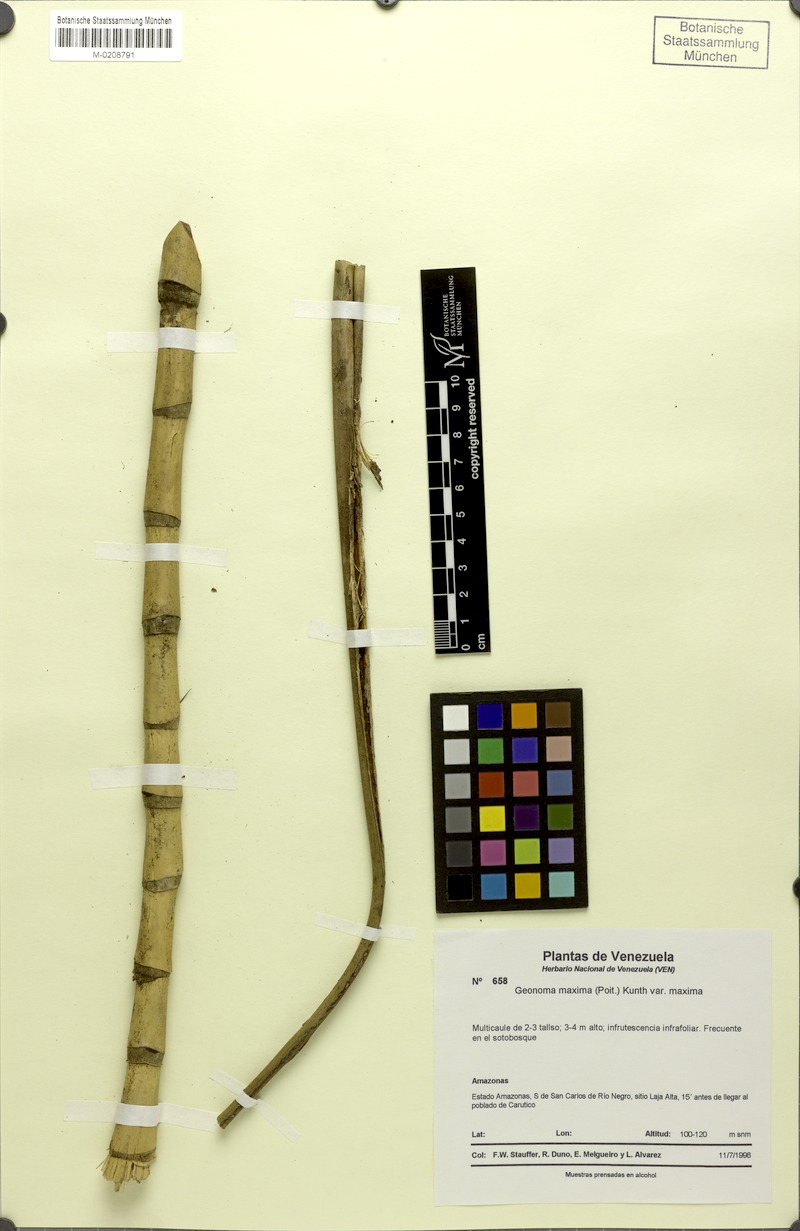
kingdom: Plantae
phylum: Tracheophyta
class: Liliopsida
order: Arecales
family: Arecaceae
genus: Geonoma
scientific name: Geonoma maxima
